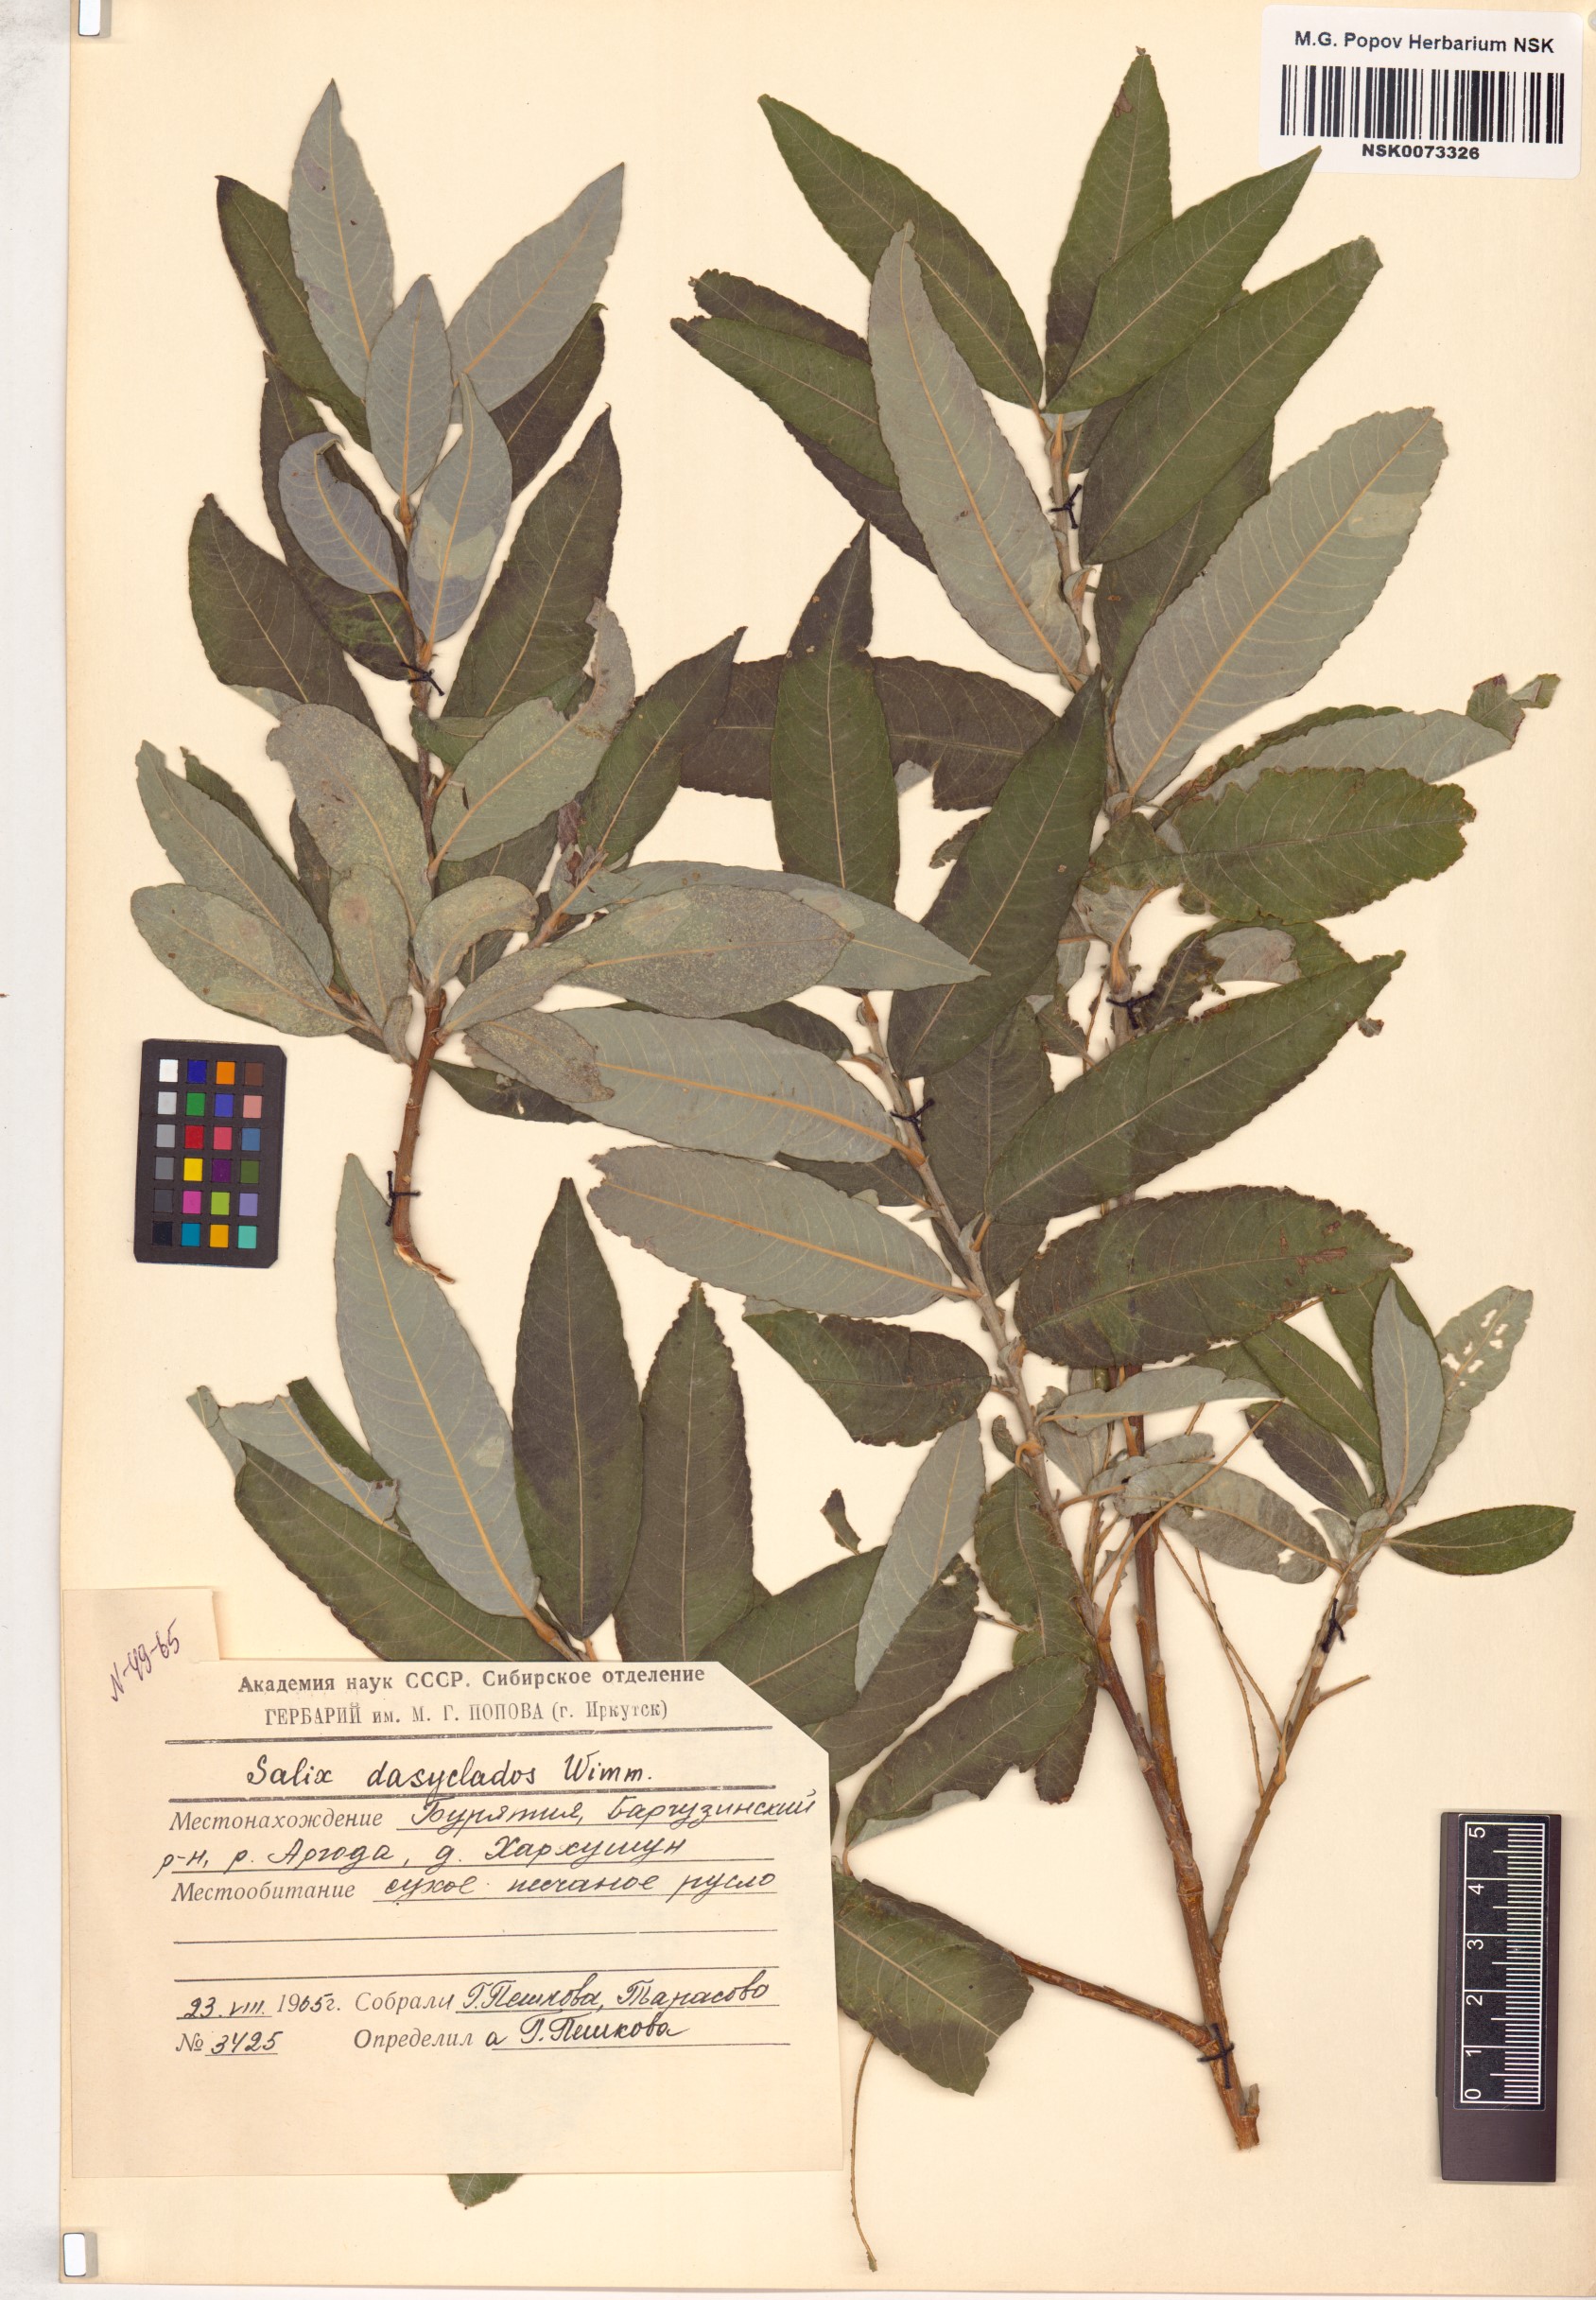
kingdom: Plantae
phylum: Tracheophyta
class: Magnoliopsida
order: Malpighiales
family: Salicaceae
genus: Salix
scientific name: Salix gmelinii
